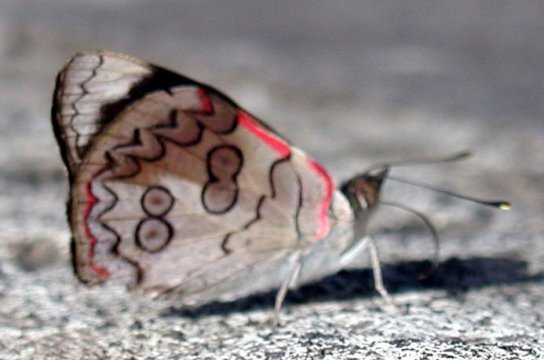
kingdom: Animalia
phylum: Arthropoda
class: Insecta
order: Lepidoptera
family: Nymphalidae
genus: Diaethria
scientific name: Diaethria pandama
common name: Orange-striped Eighty-eight
